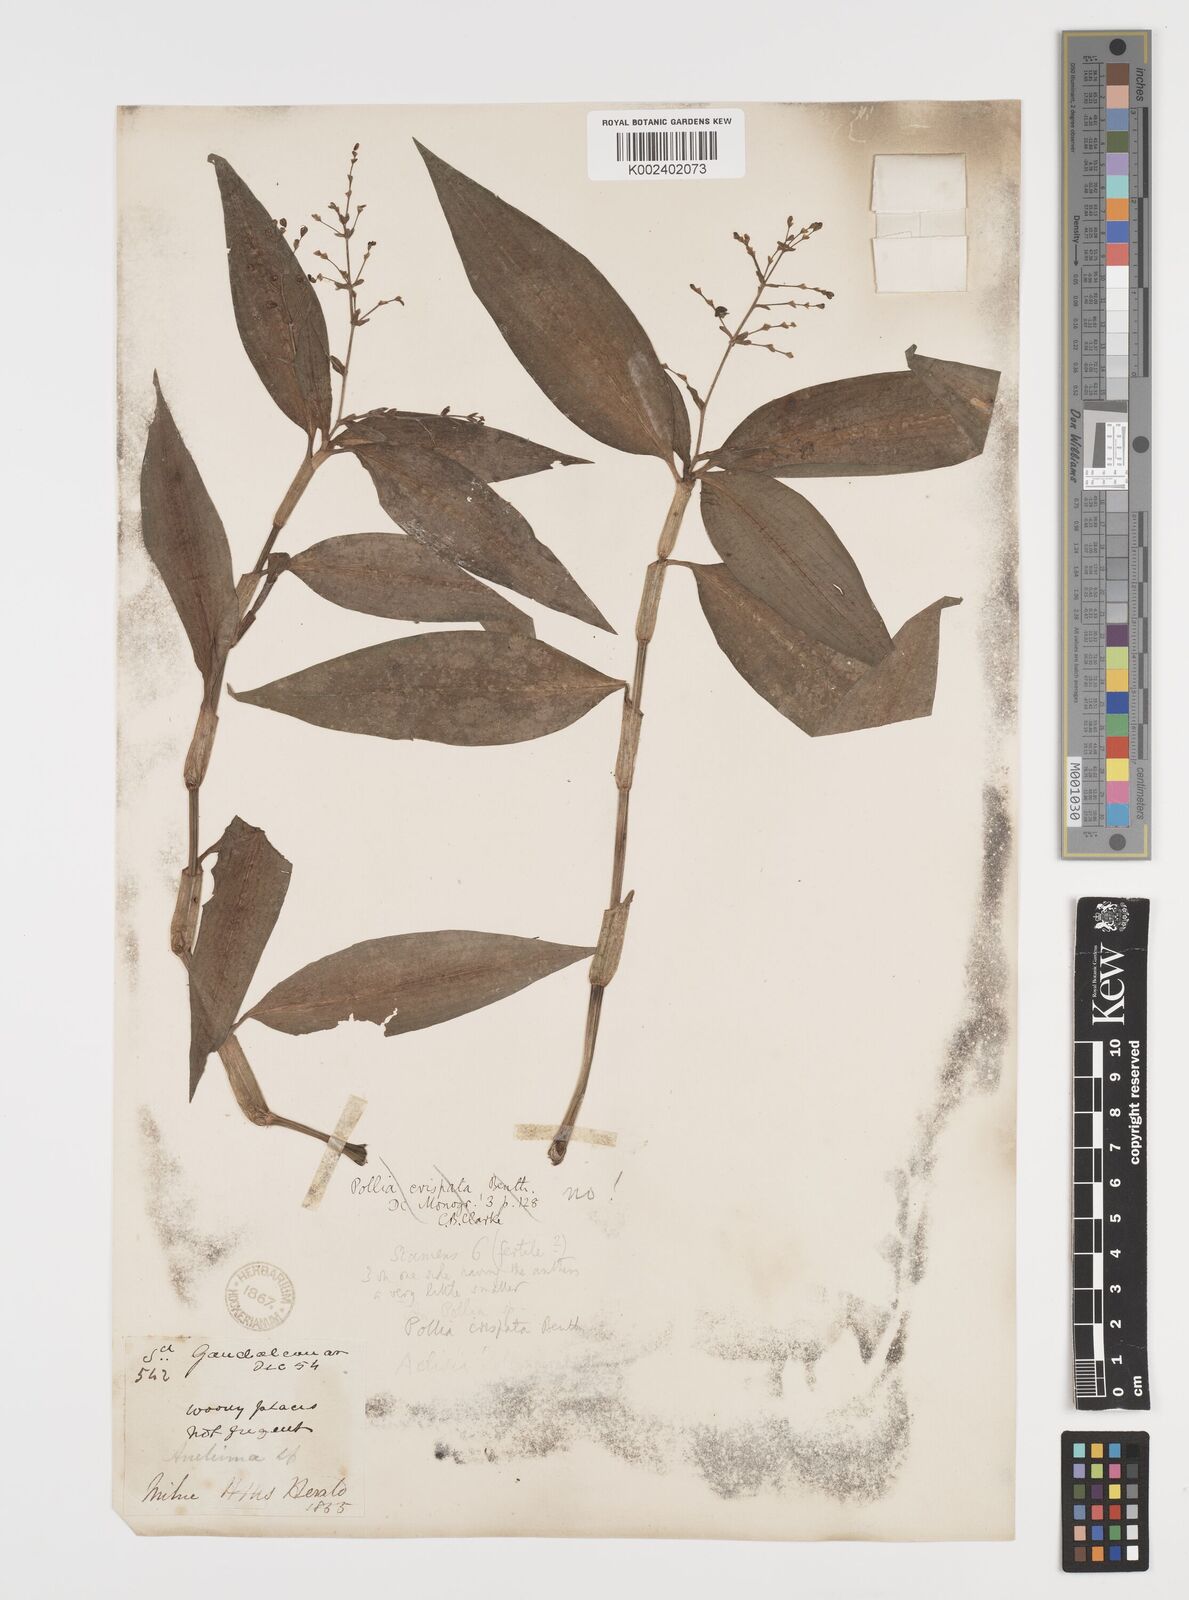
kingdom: Plantae
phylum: Tracheophyta
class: Liliopsida
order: Commelinales
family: Commelinaceae
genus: Aneilema
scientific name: Aneilema acuminatum
